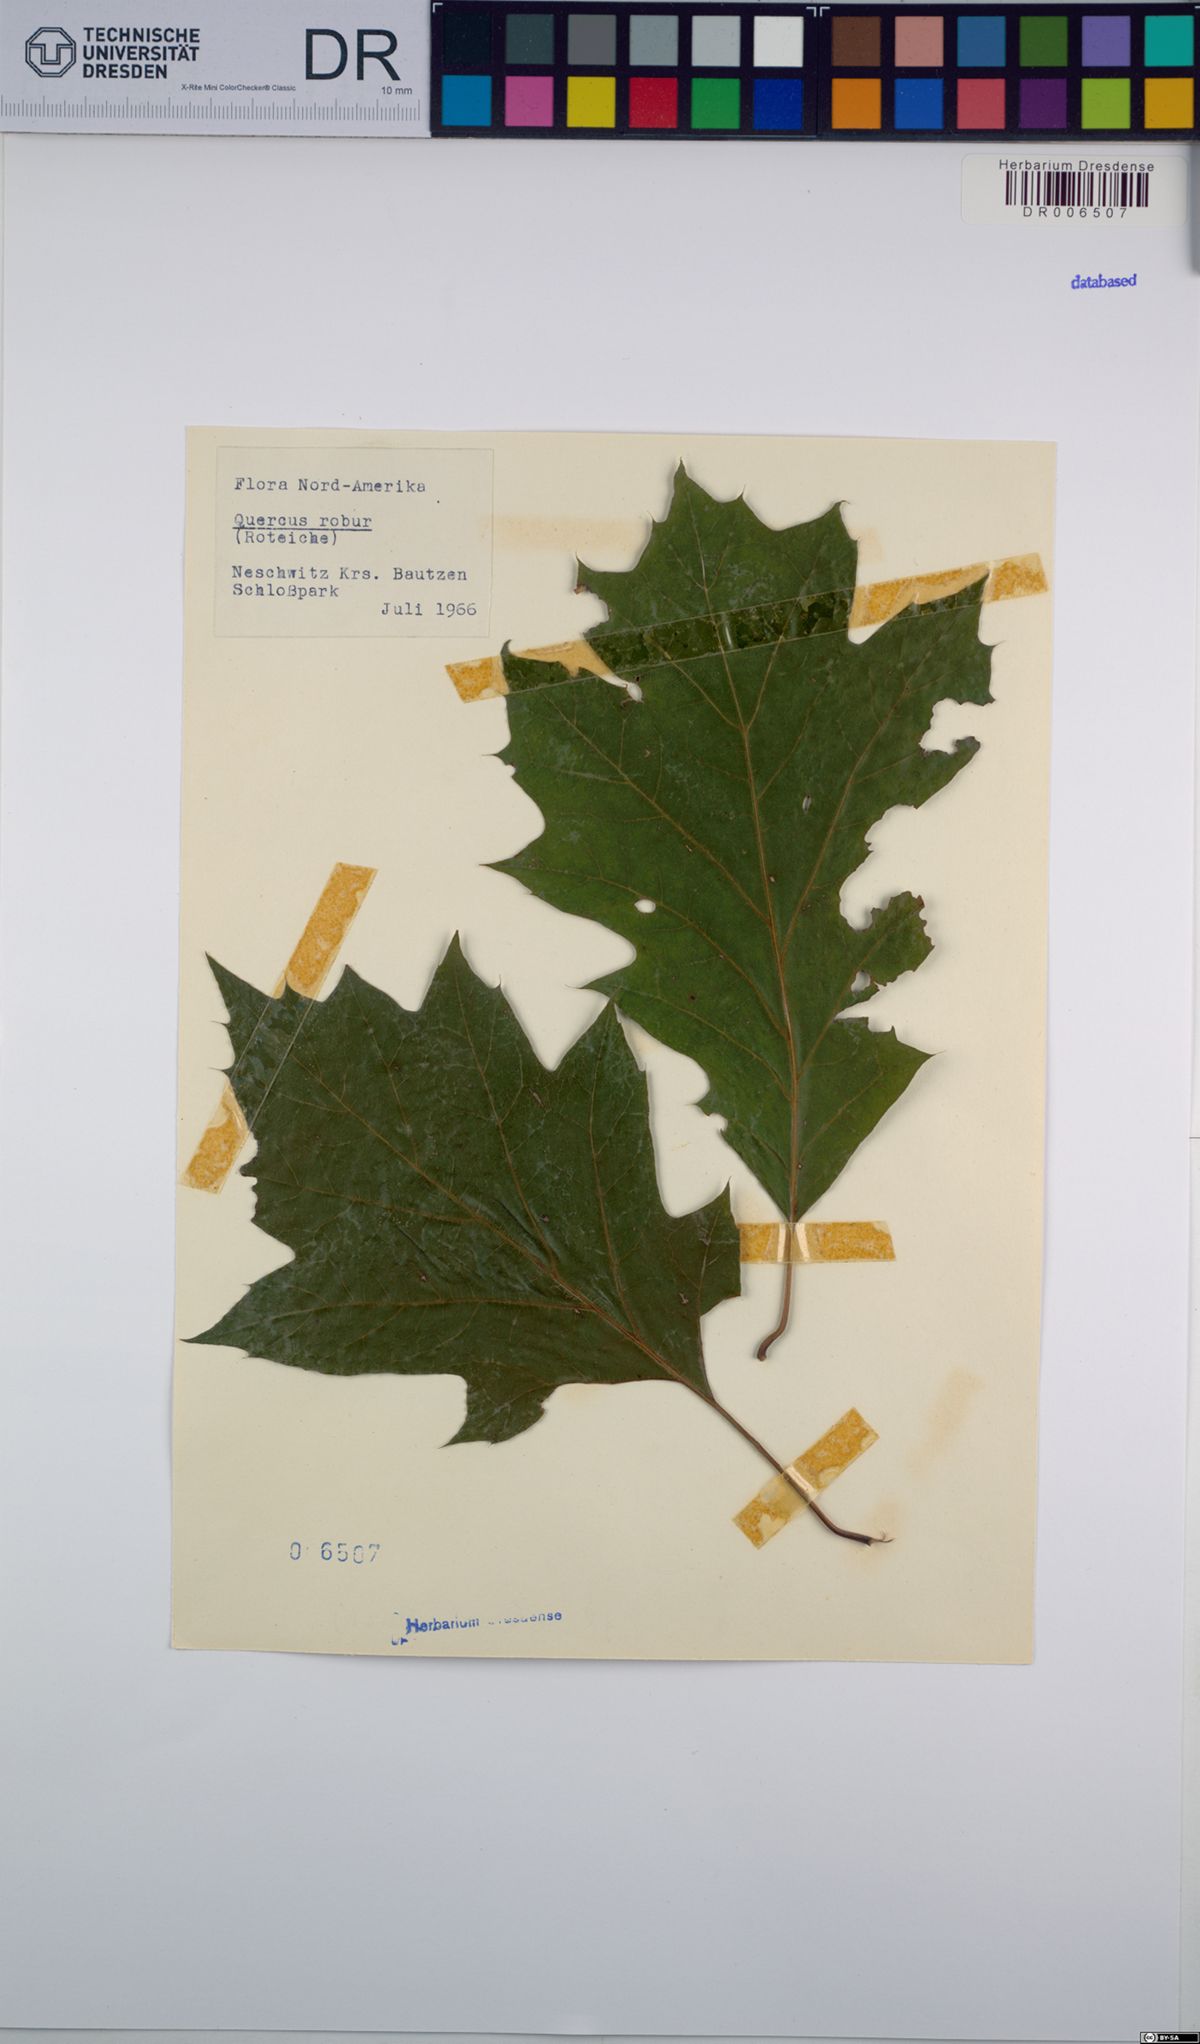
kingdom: Plantae
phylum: Tracheophyta
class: Magnoliopsida
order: Fagales
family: Fagaceae
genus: Quercus
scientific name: Quercus robur
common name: Pedunculate oak
